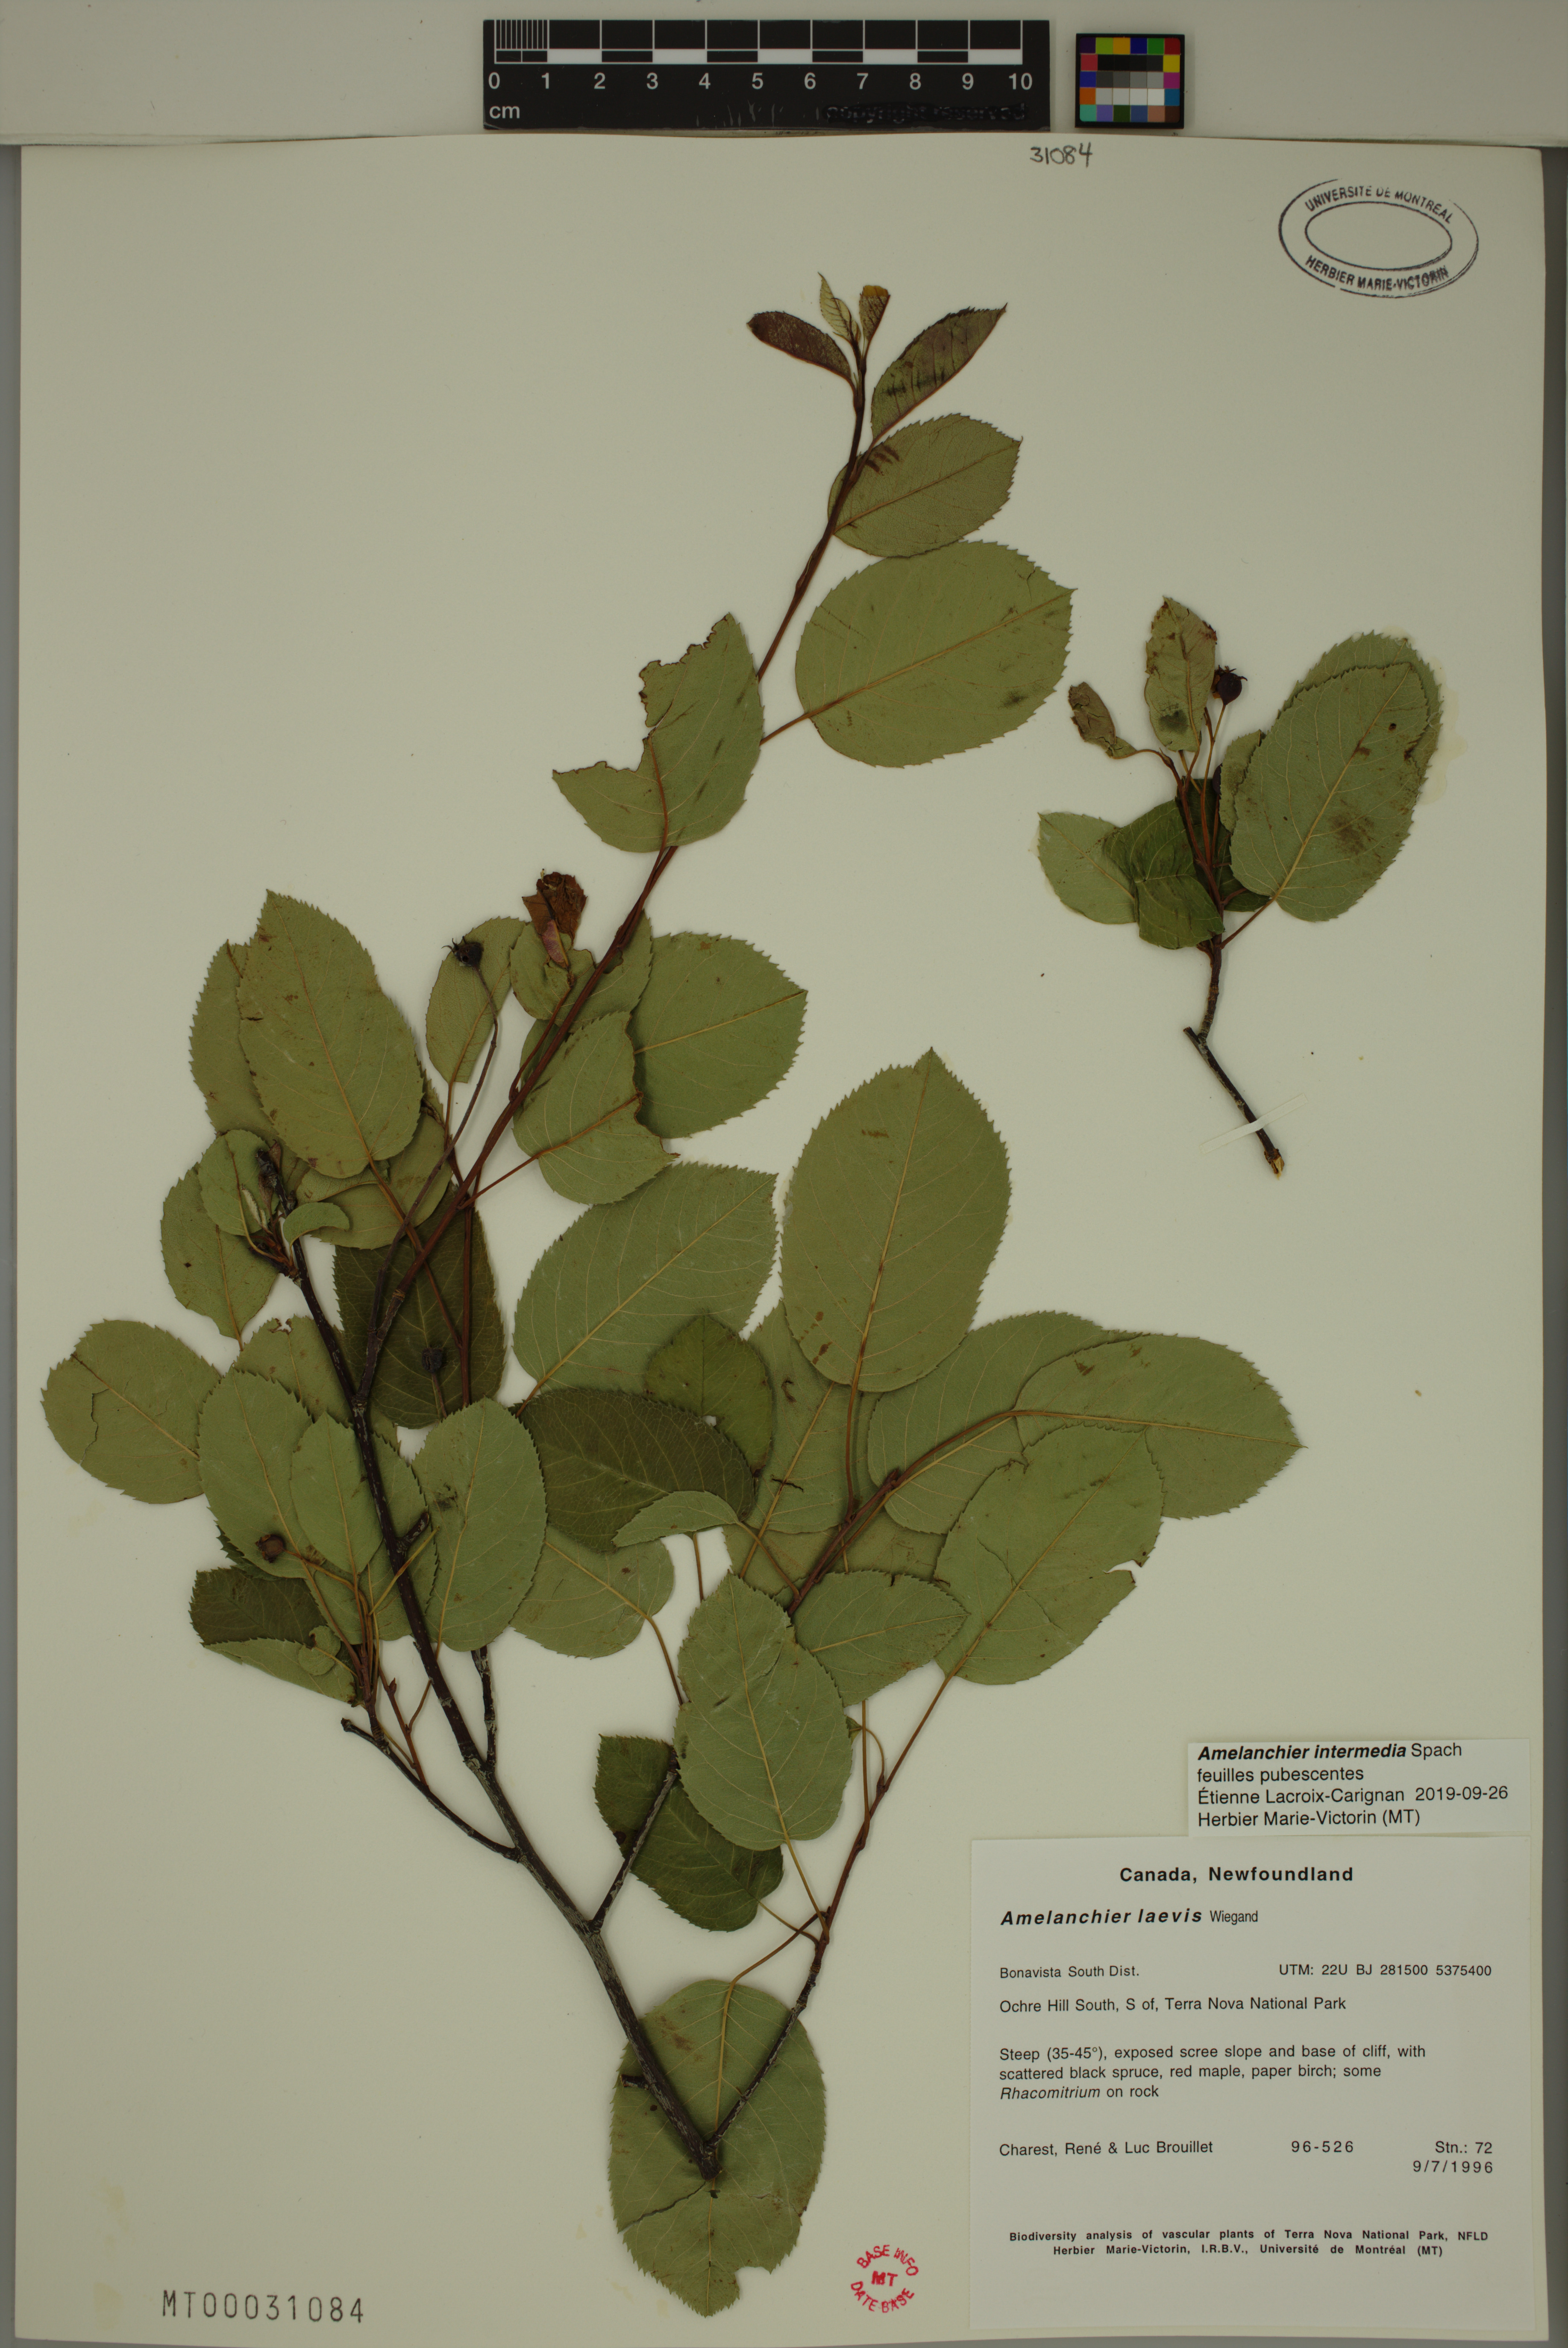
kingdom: Plantae
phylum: Tracheophyta
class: Magnoliopsida
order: Rosales
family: Rosaceae
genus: Amelanchier
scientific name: Amelanchier intermedia
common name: Intermediate shadbush
